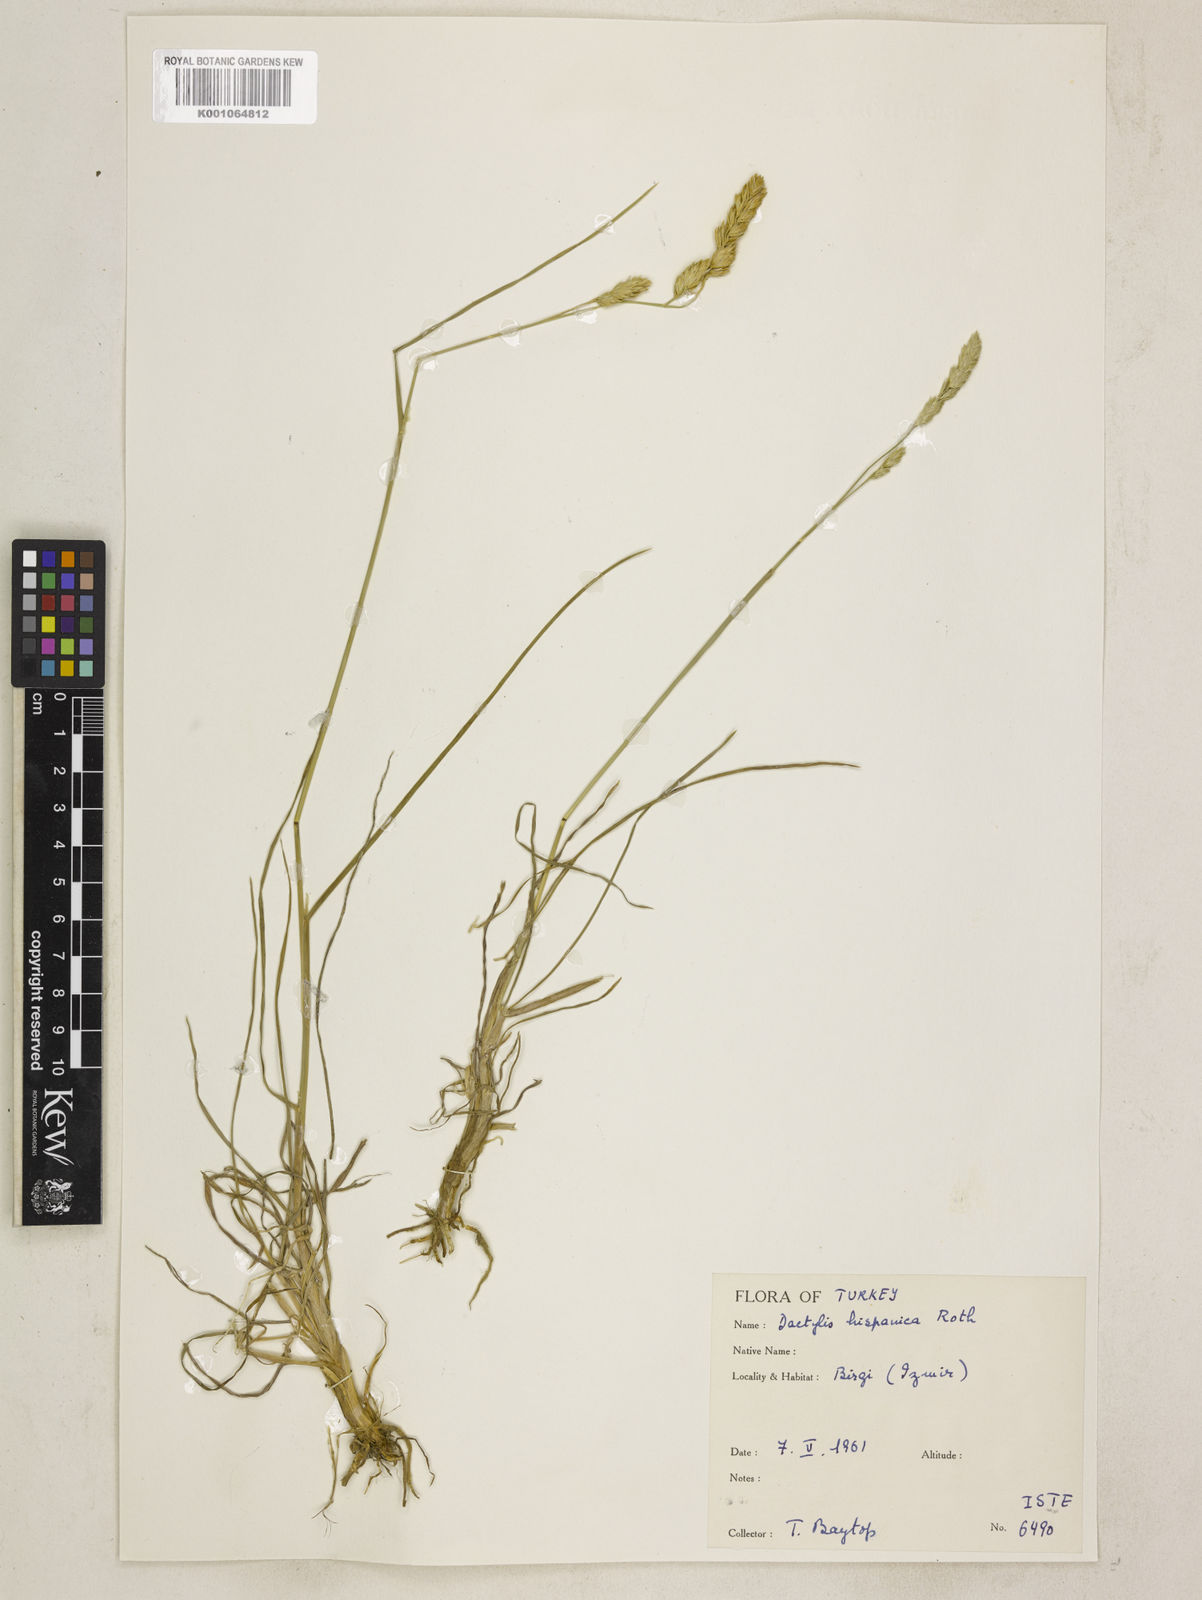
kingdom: Plantae
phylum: Tracheophyta
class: Liliopsida
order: Poales
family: Poaceae
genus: Dactylis
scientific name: Dactylis glomerata
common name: Orchardgrass
